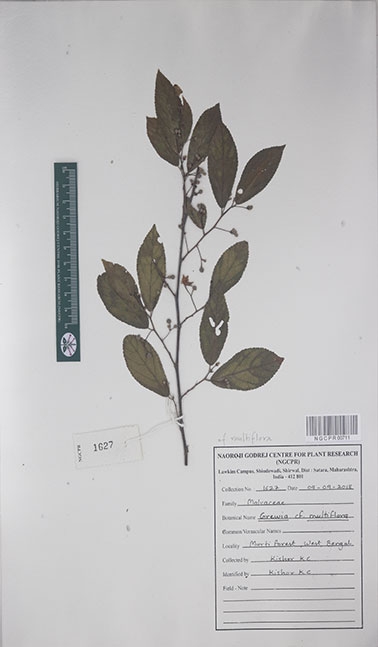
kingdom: Plantae
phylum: Tracheophyta
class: Magnoliopsida
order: Malvales
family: Malvaceae
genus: Grewia
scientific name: Grewia multiflora
